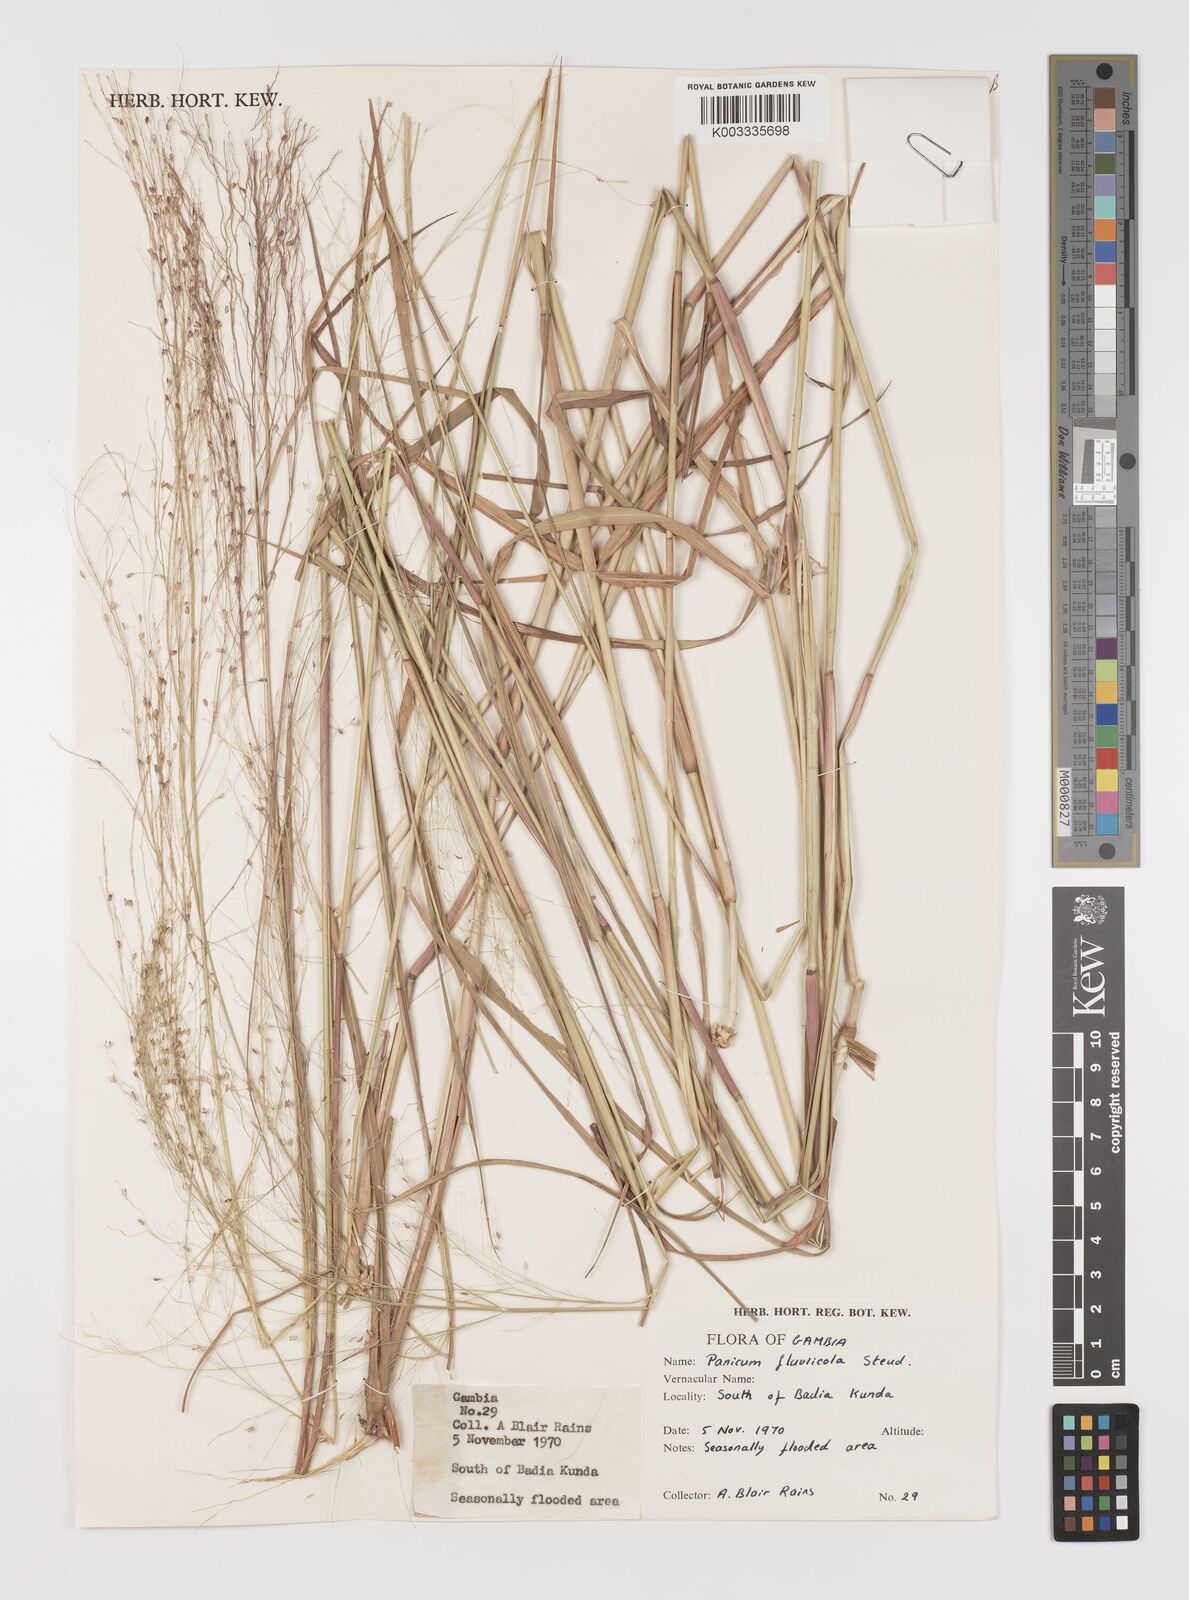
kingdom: Plantae
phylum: Tracheophyta
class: Liliopsida
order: Poales
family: Poaceae
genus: Panicum
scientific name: Panicum fluviicola
